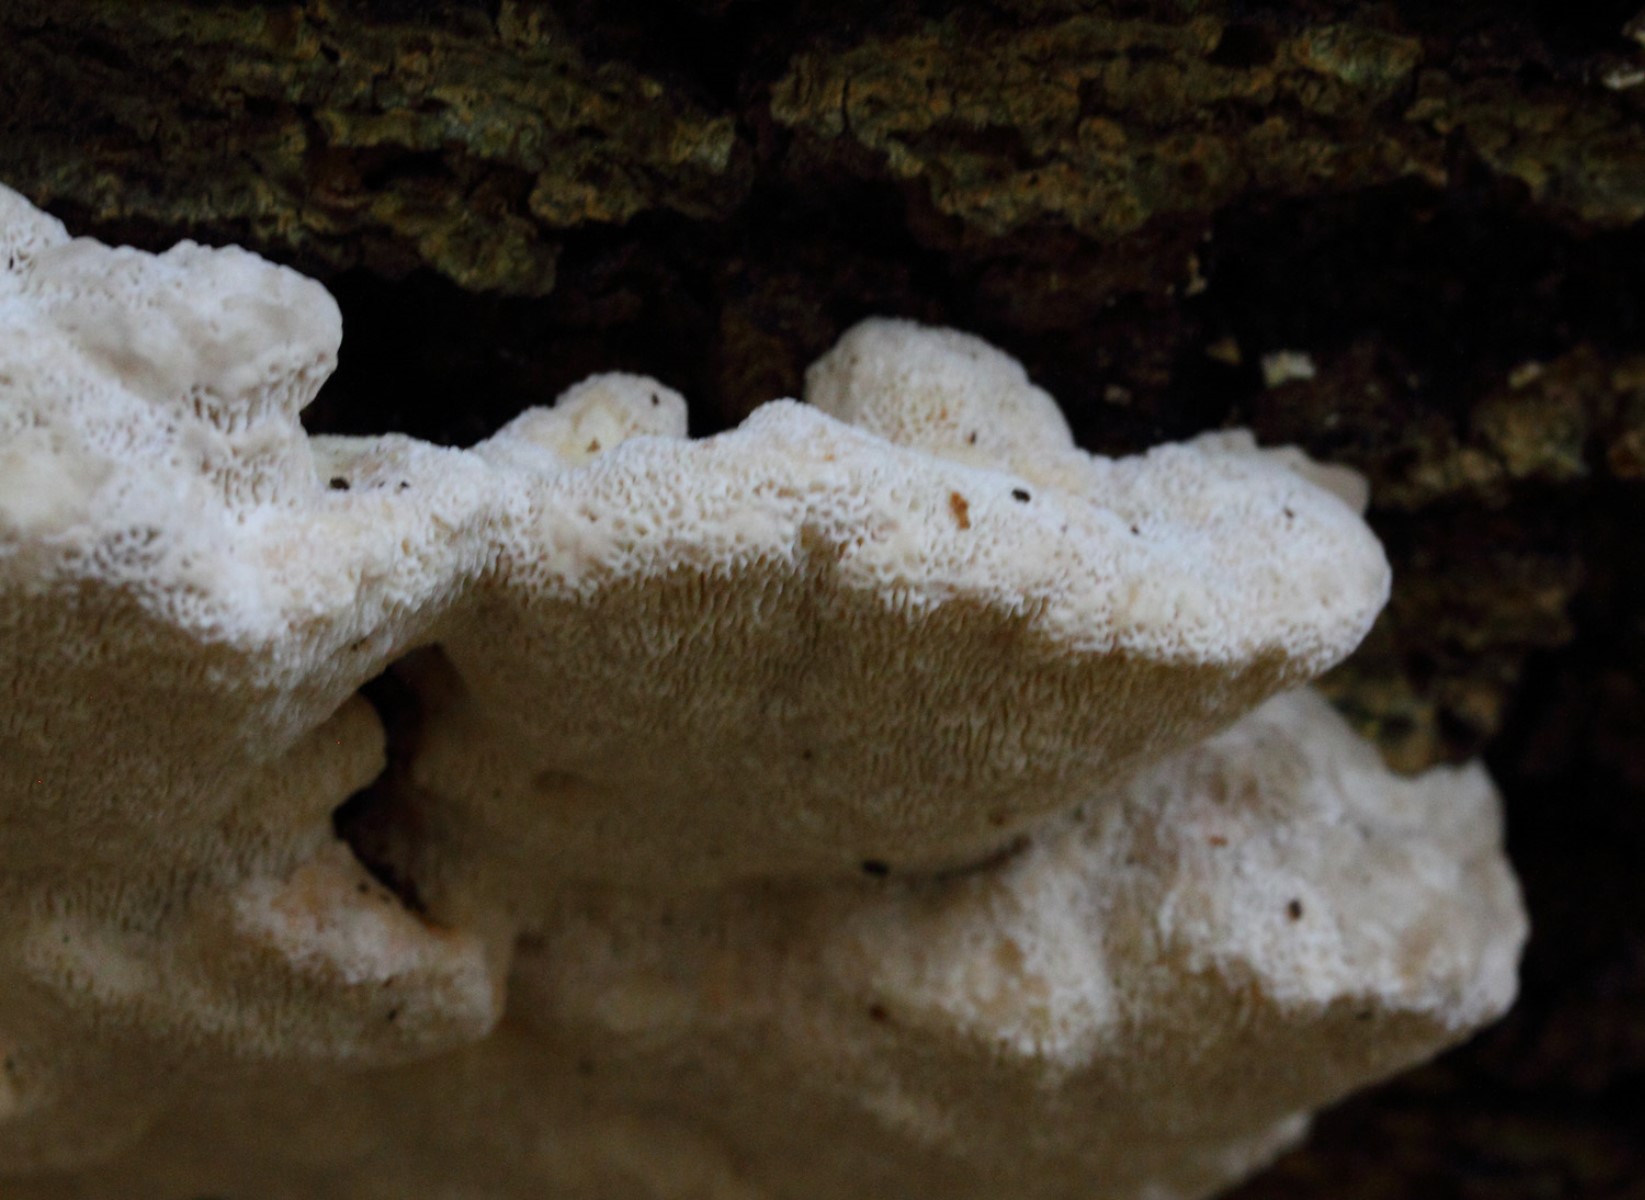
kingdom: Fungi
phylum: Basidiomycota
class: Agaricomycetes
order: Polyporales
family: Polyporaceae
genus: Trametes
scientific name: Trametes gibbosa
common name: puklet læderporesvamp
